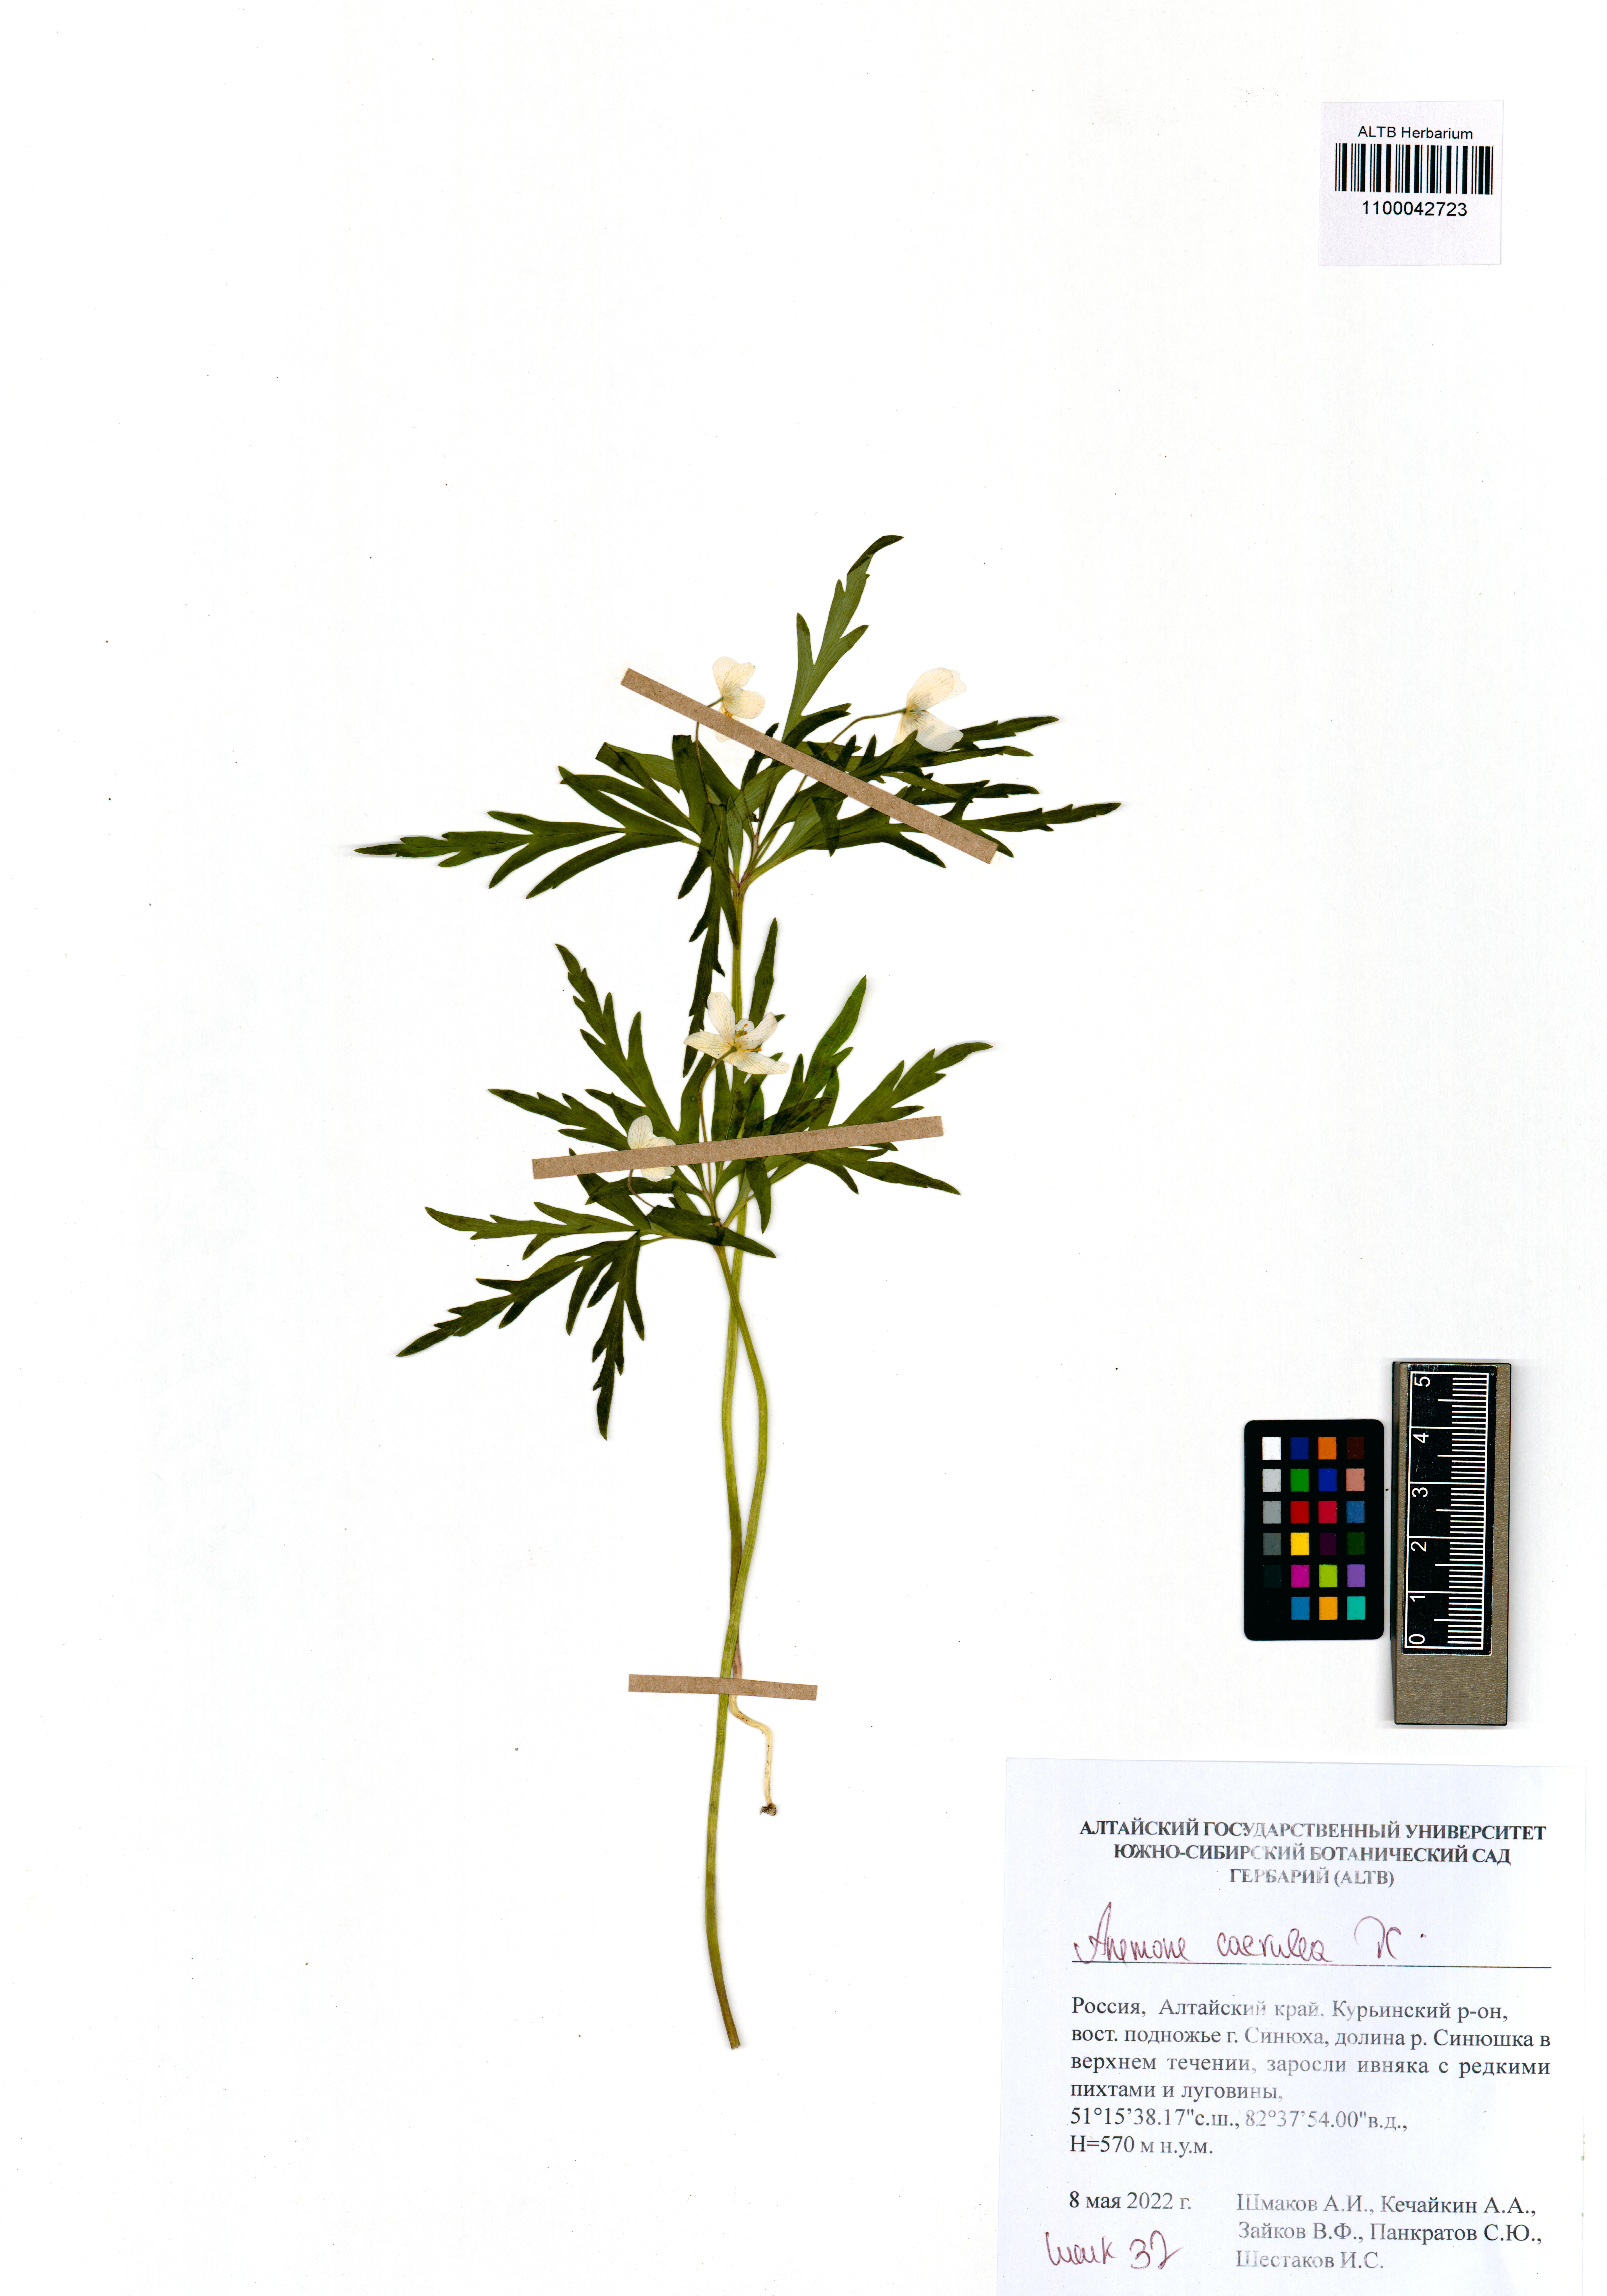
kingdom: Plantae
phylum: Tracheophyta
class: Magnoliopsida
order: Ranunculales
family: Ranunculaceae
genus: Anemone
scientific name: Anemone caerulea
